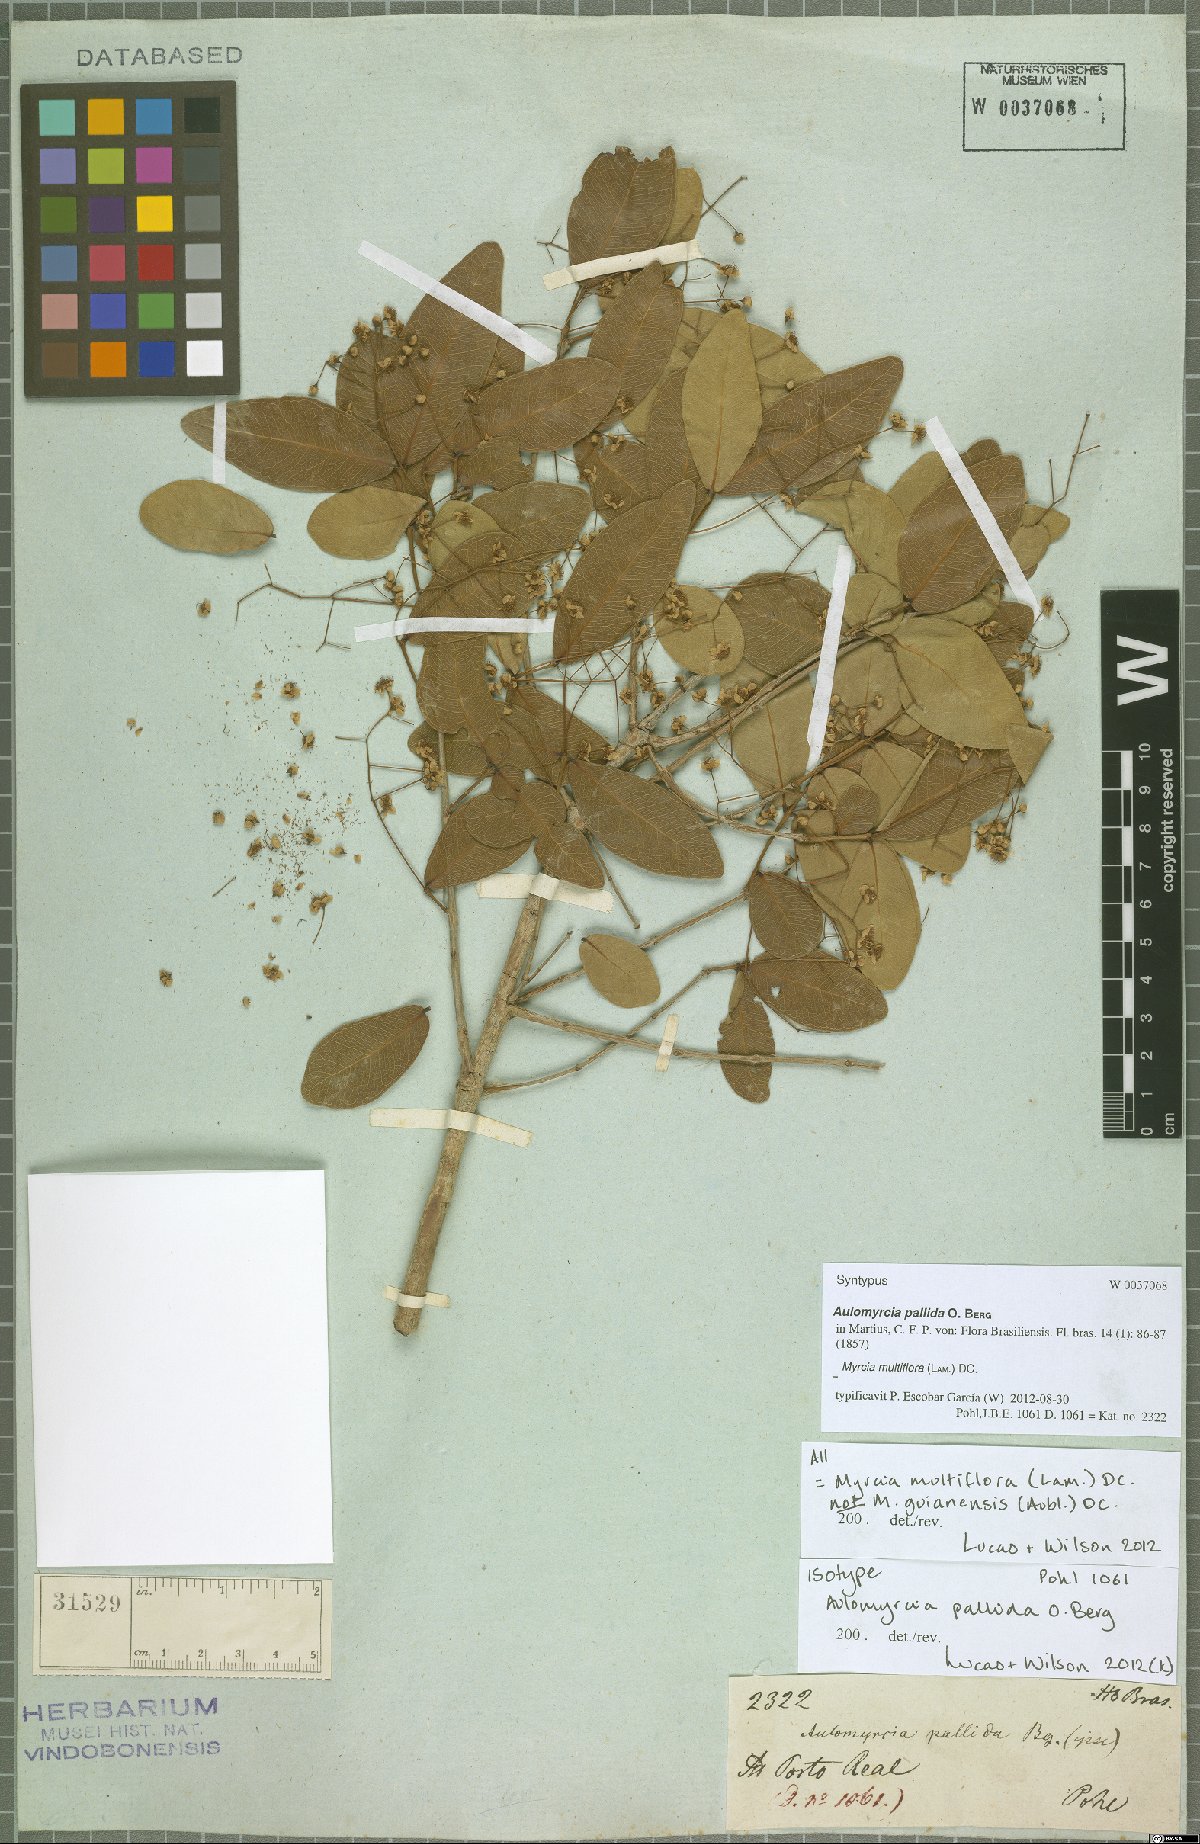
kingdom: Plantae
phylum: Tracheophyta
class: Magnoliopsida
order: Myrtales
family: Myrtaceae
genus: Myrcia
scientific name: Myrcia multiflora
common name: Pedra hume
